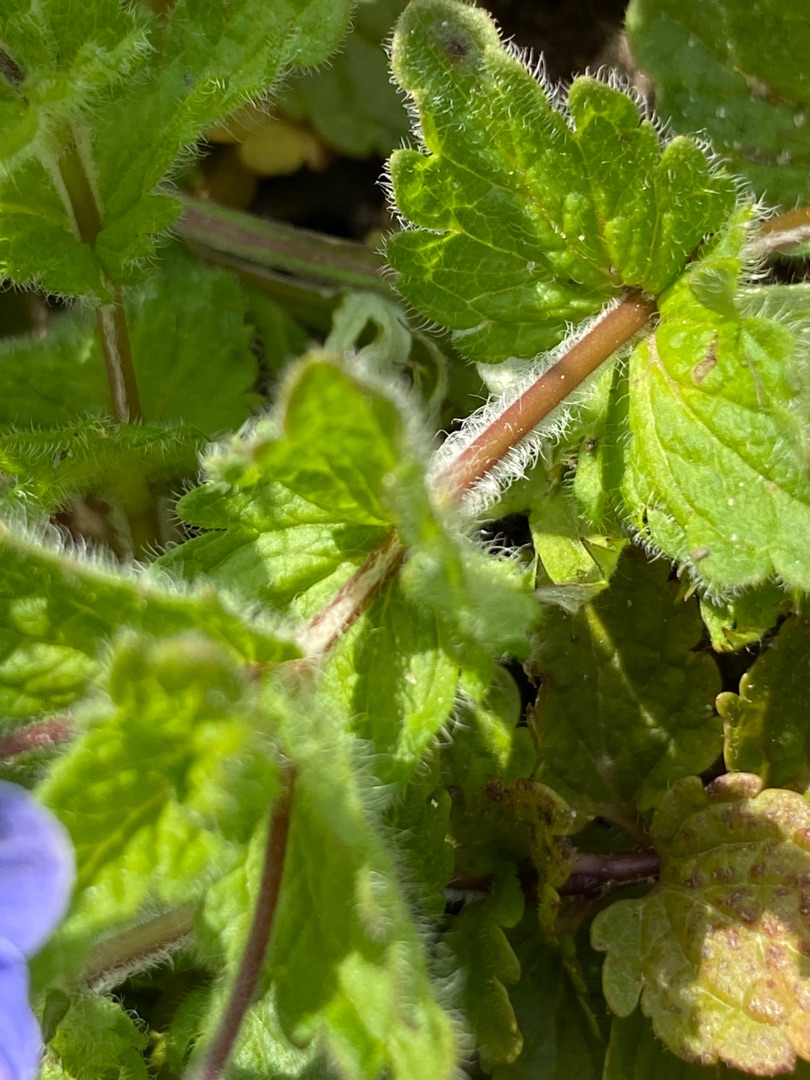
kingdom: Plantae
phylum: Tracheophyta
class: Magnoliopsida
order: Lamiales
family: Plantaginaceae
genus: Veronica
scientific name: Veronica chamaedrys
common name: Tveskægget ærenpris
